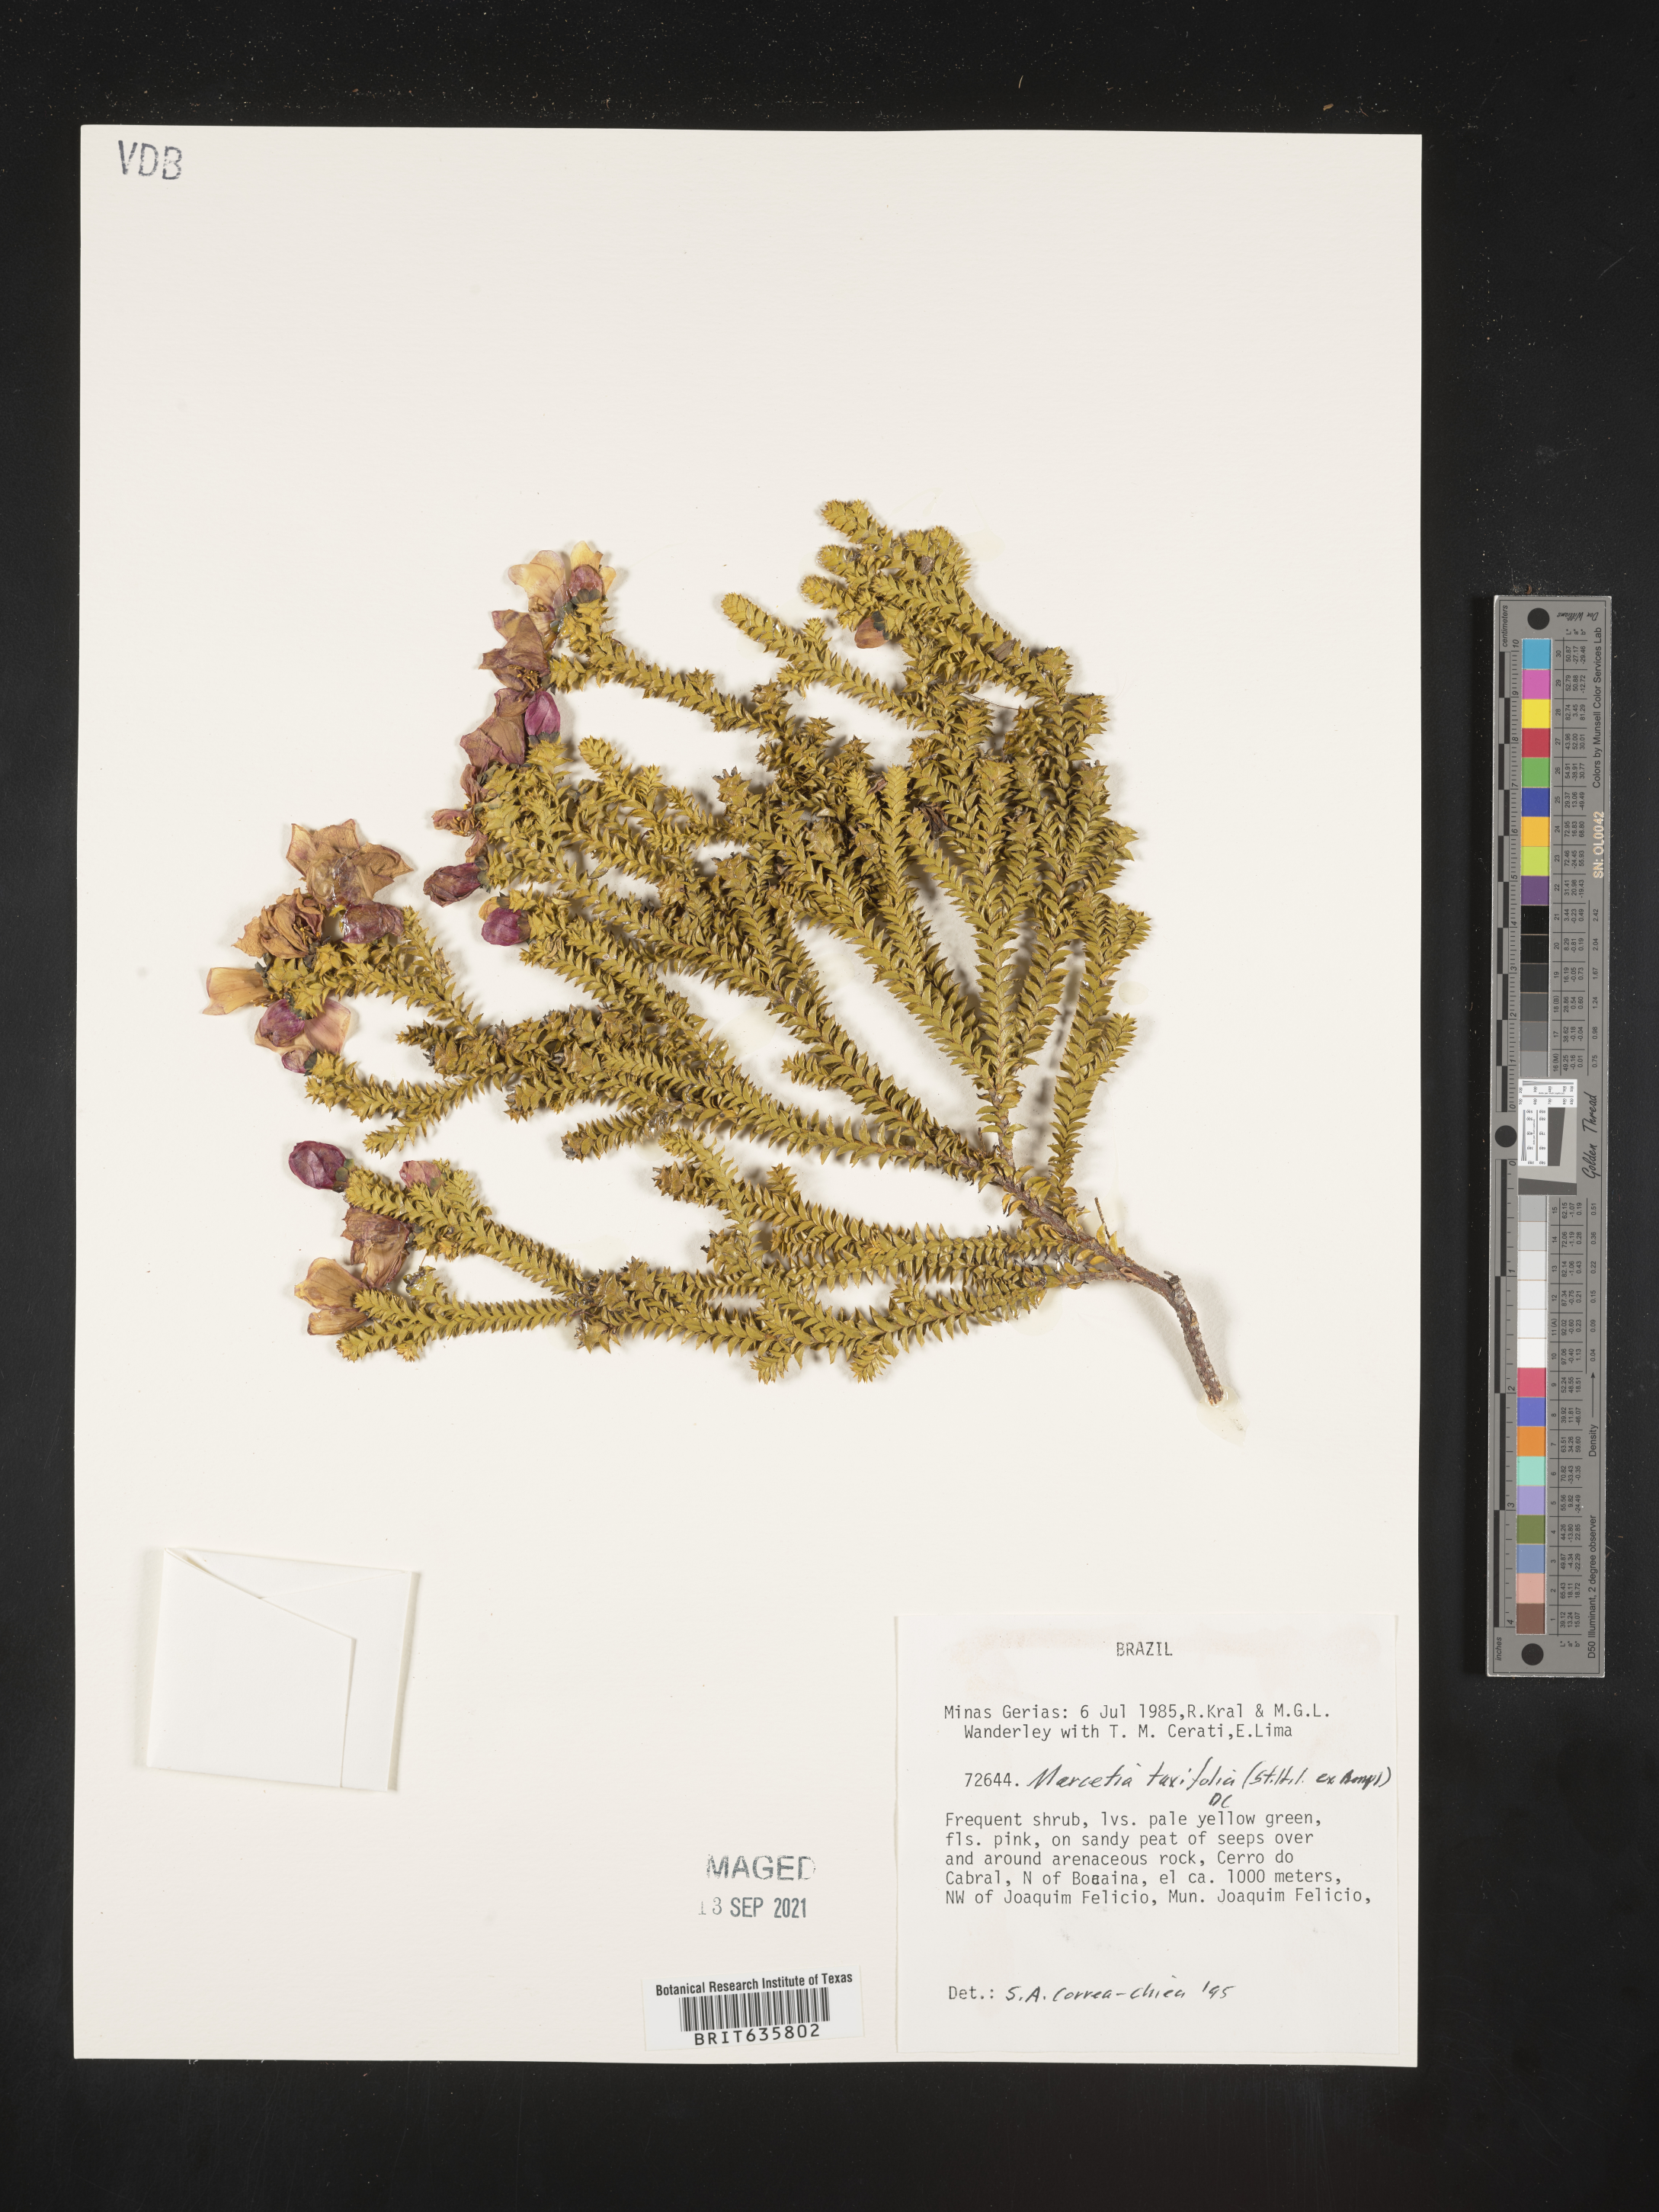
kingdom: Plantae
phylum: Tracheophyta
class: Magnoliopsida
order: Myrtales
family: Melastomataceae
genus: Marcetia
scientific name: Marcetia
